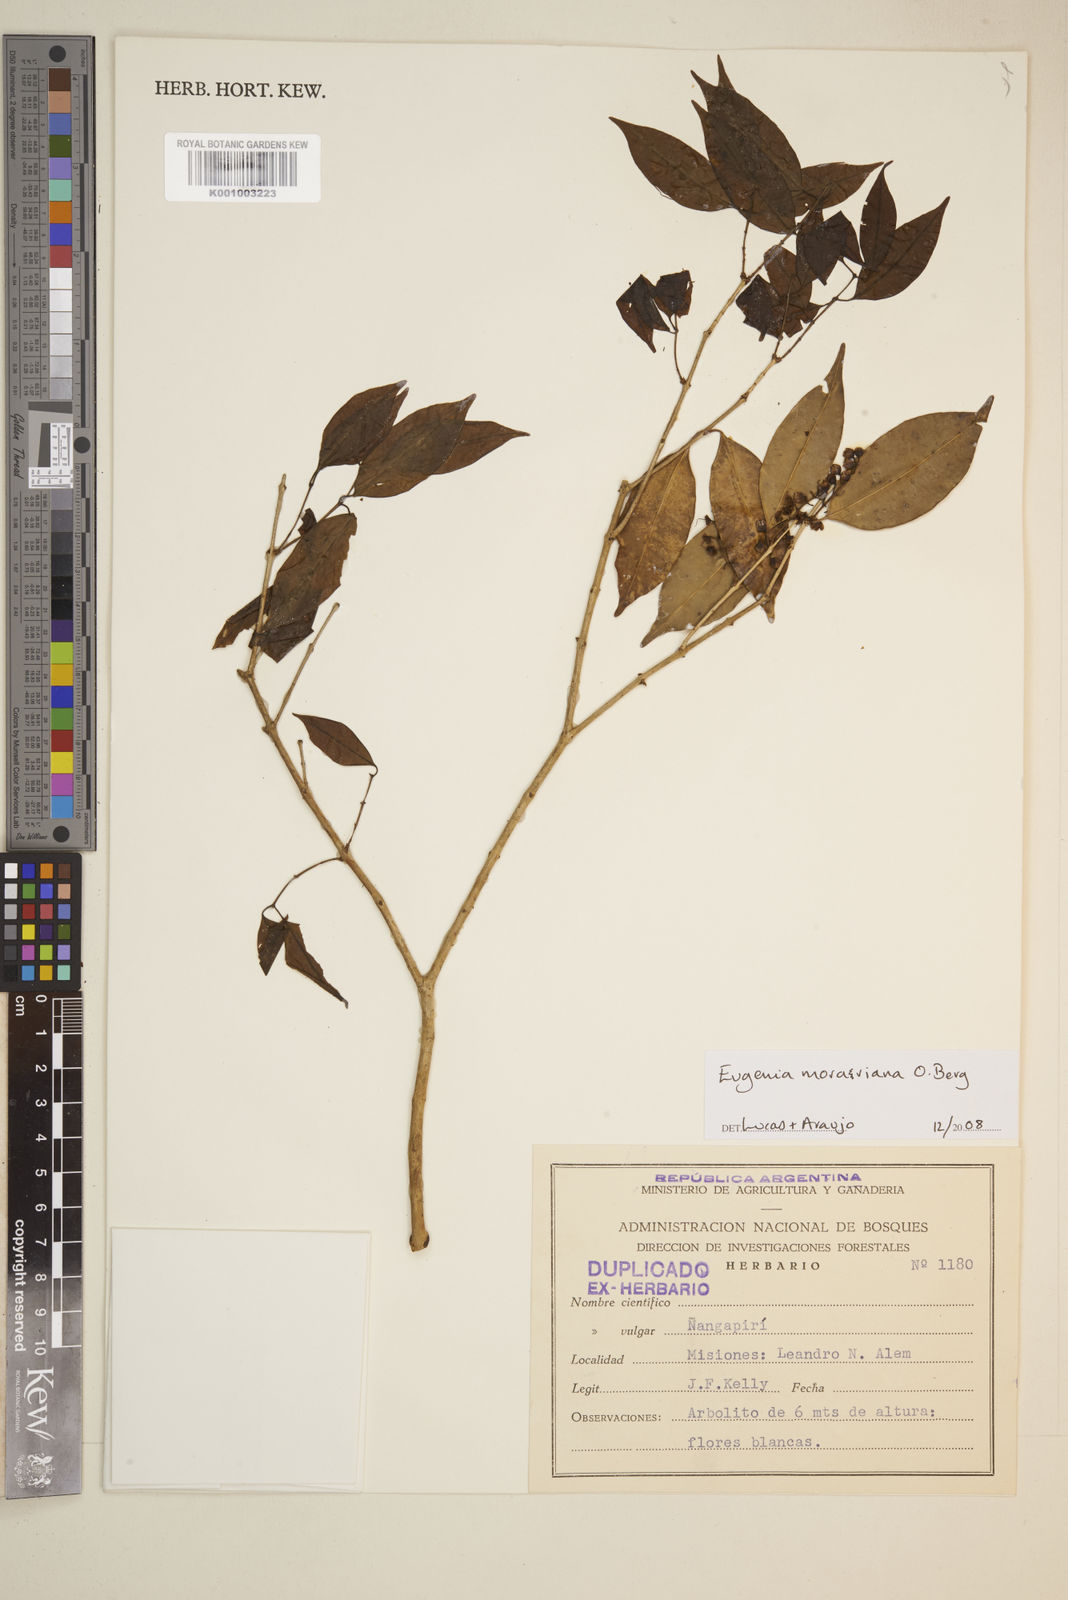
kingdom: Plantae
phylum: Tracheophyta
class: Magnoliopsida
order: Myrtales
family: Myrtaceae
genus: Eugenia
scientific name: Eugenia moraviana
